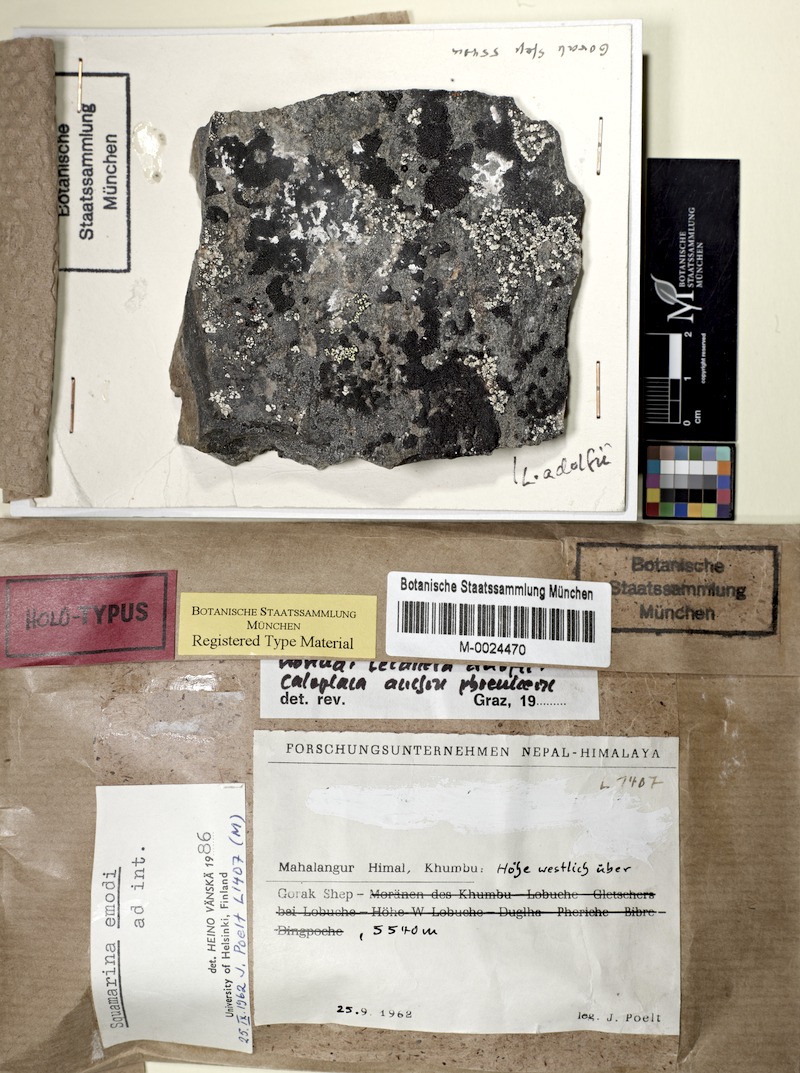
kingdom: Fungi
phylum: Ascomycota
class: Lecanoromycetes
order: Lecanorales
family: Lecanoraceae
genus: Lecanora
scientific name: Lecanora emodi
